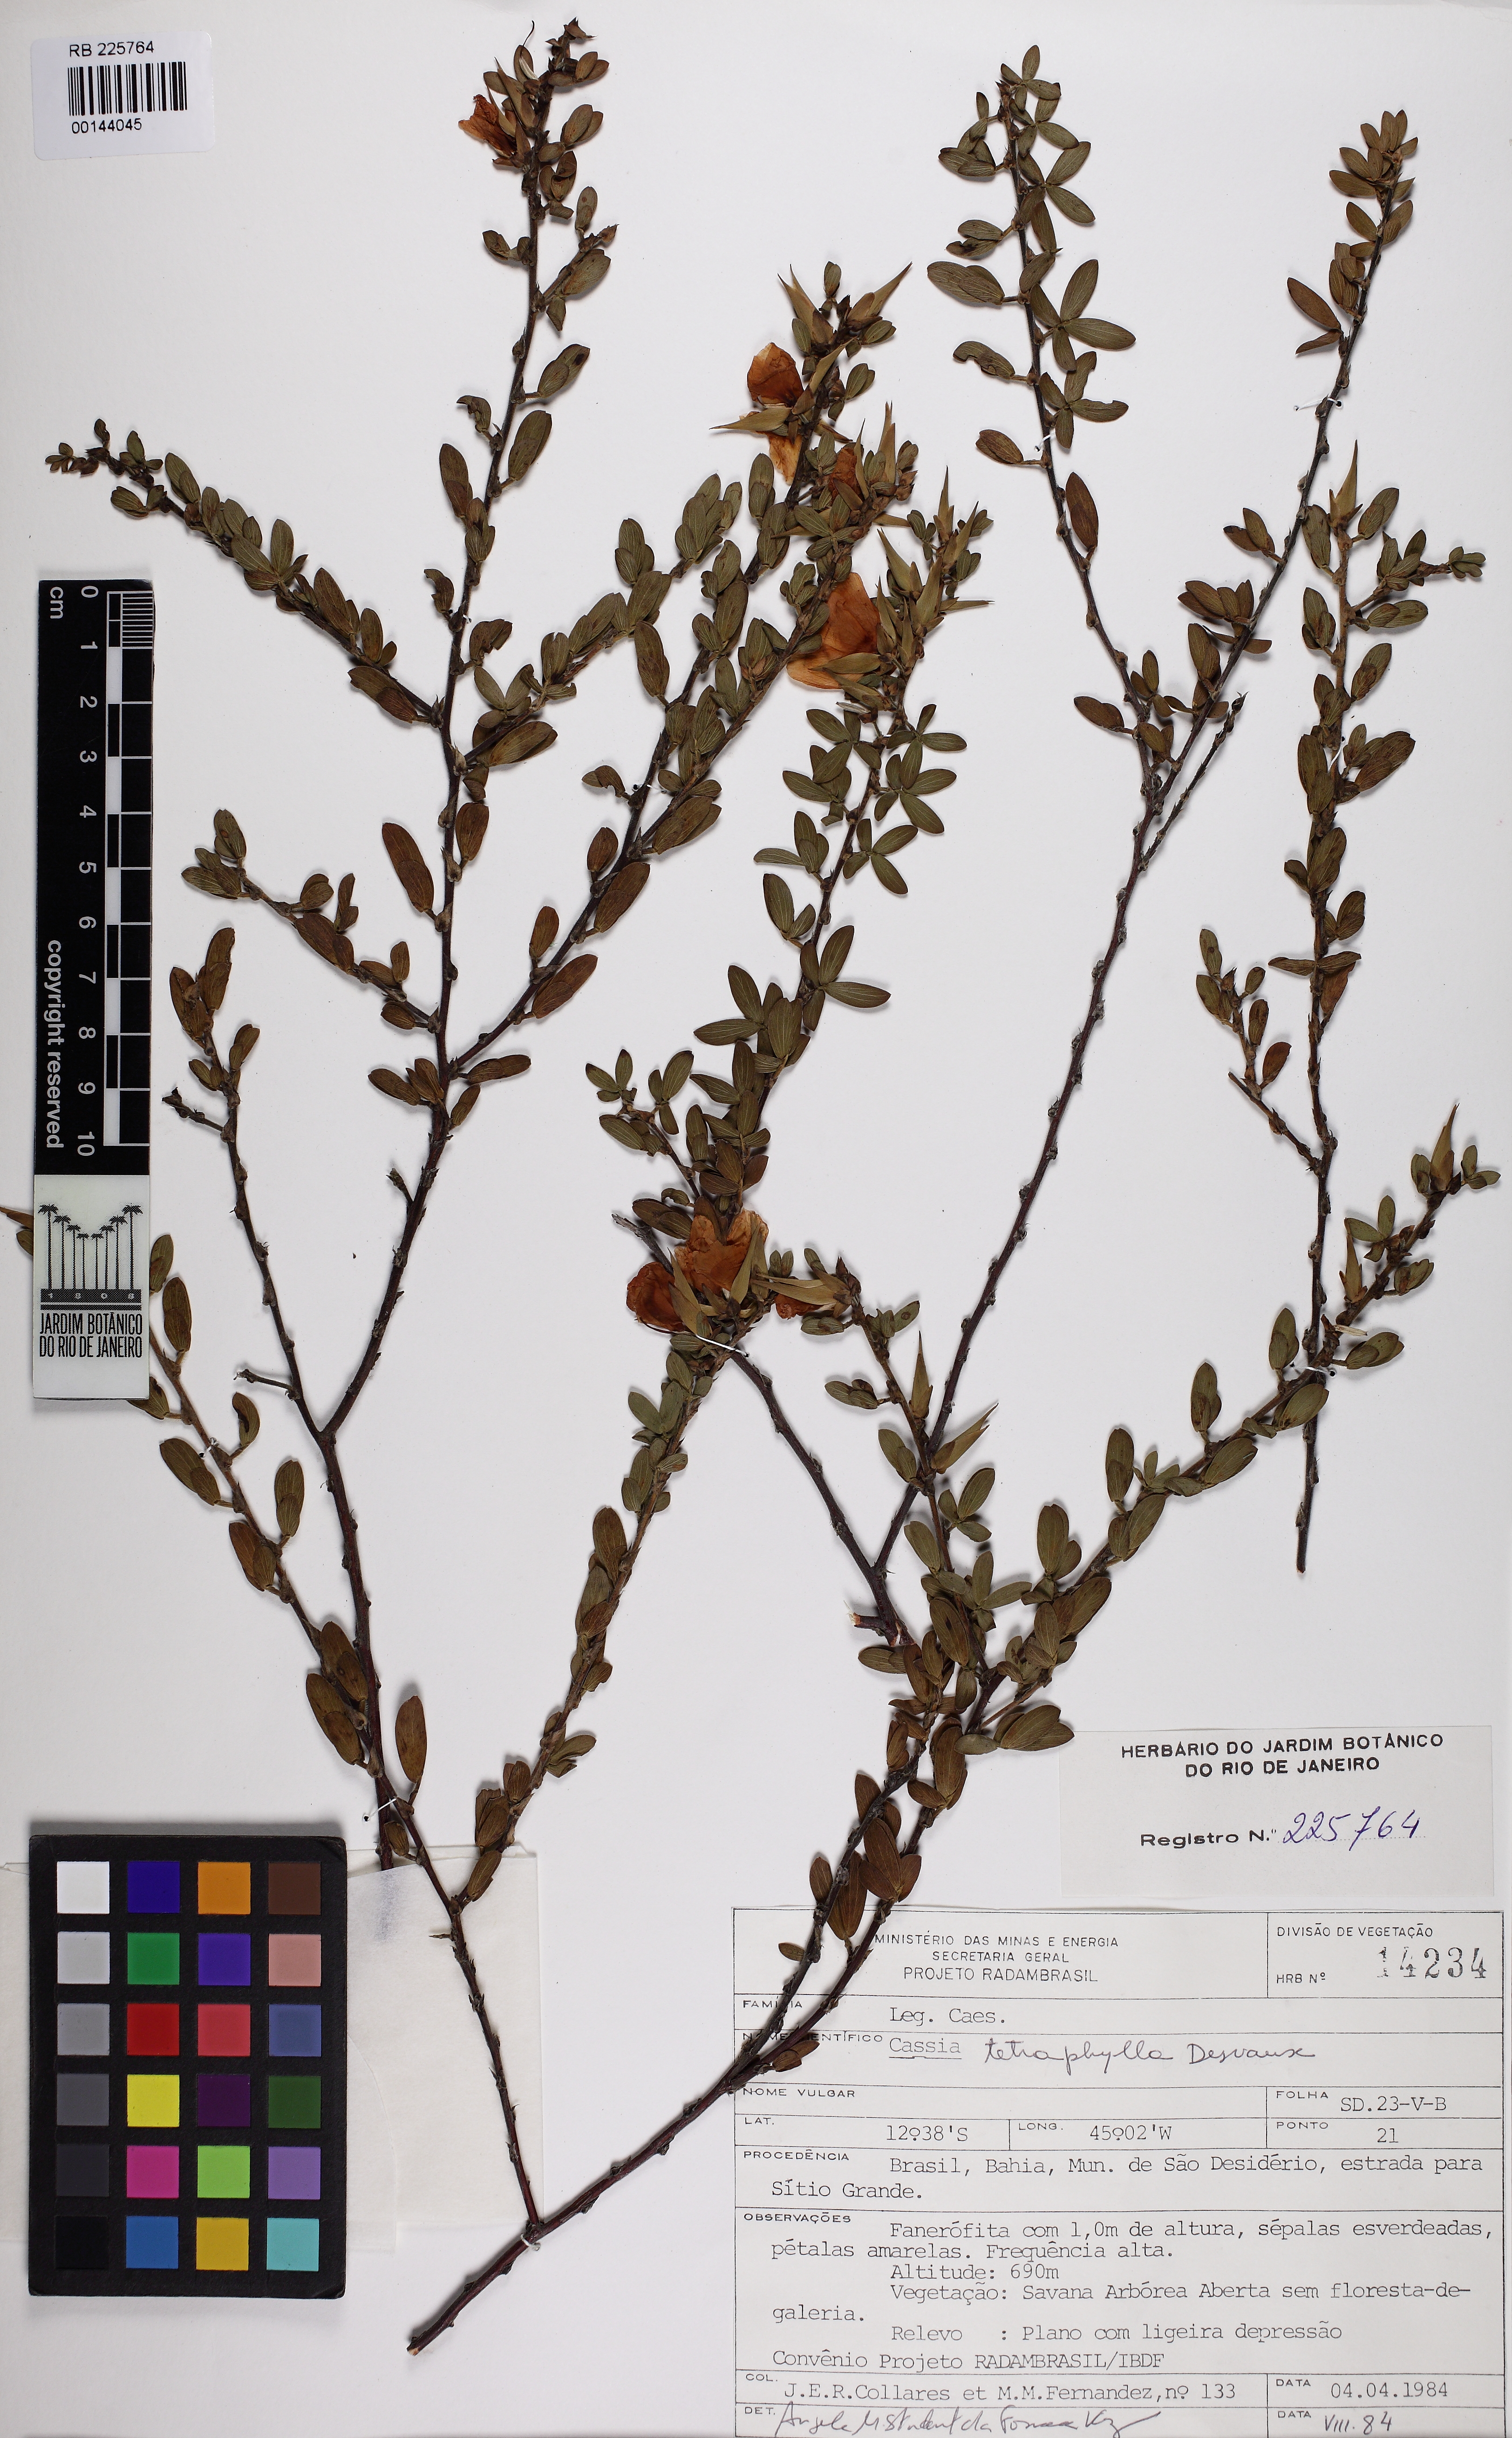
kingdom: Plantae
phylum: Tracheophyta
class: Magnoliopsida
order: Fabales
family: Fabaceae
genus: Chamaecrista
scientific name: Chamaecrista desvauxii
